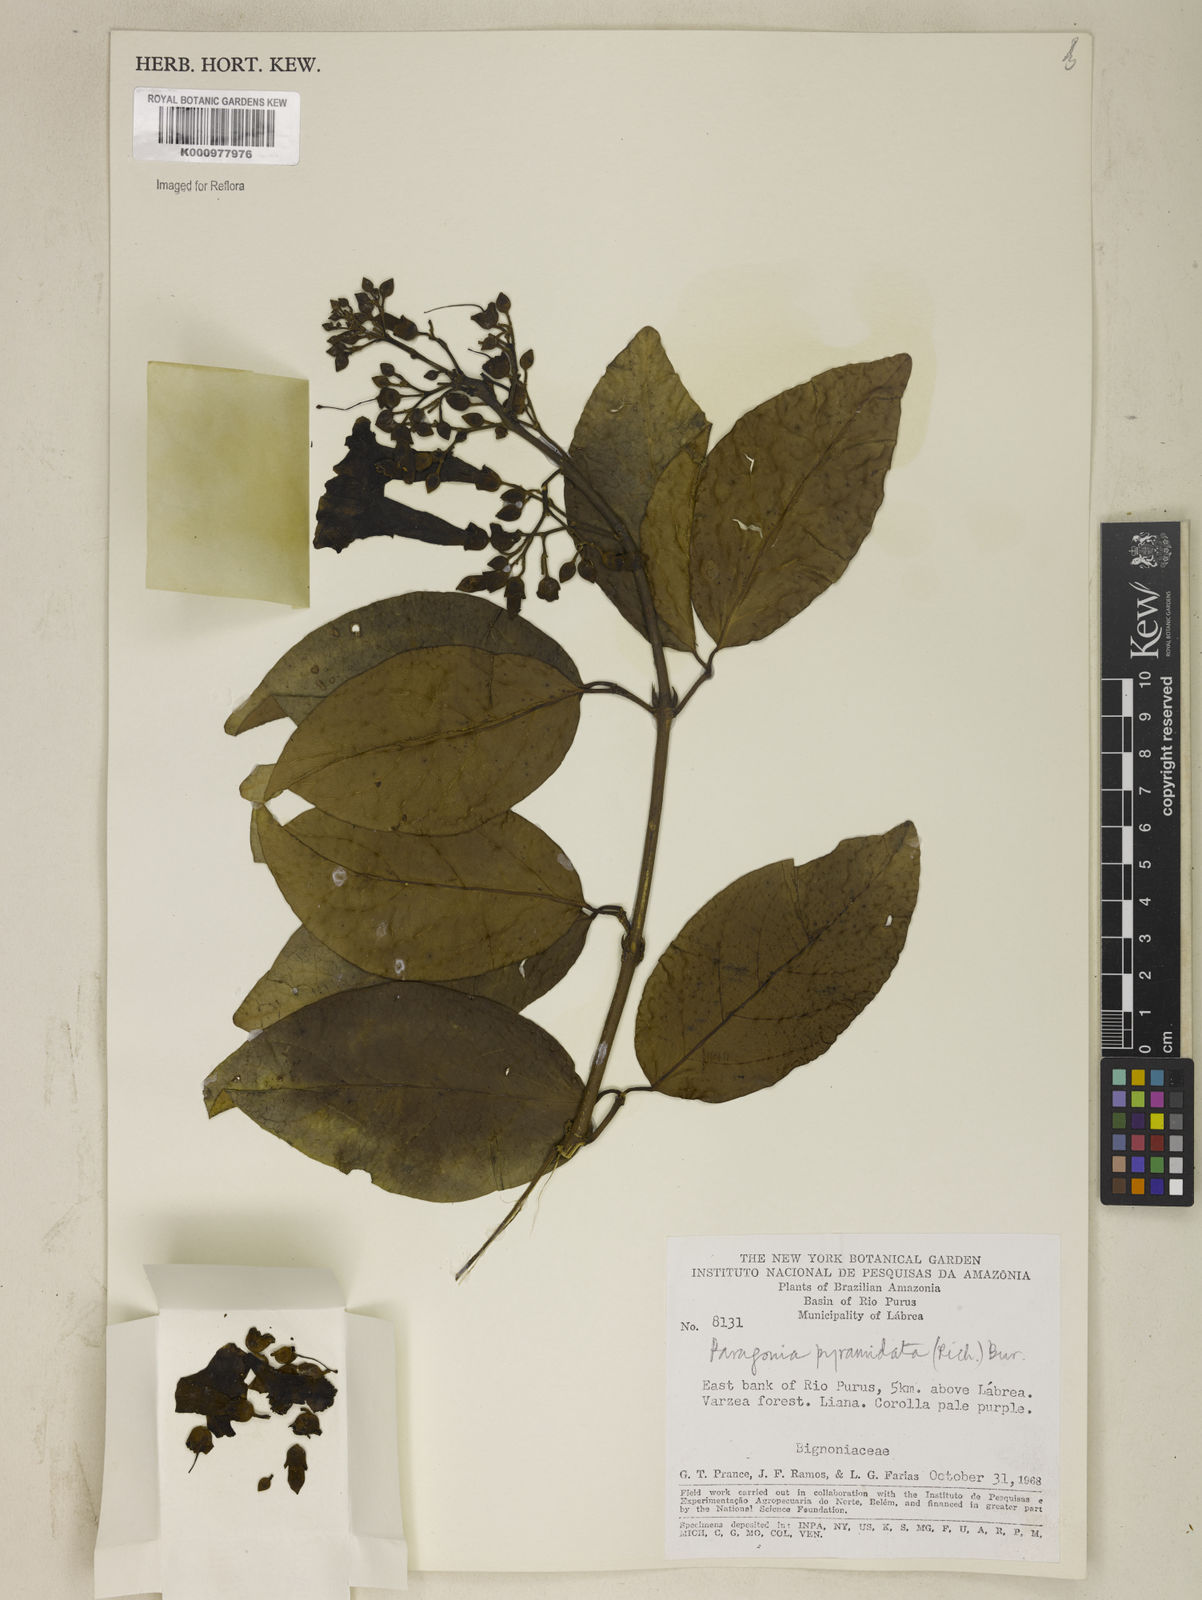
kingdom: Plantae
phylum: Tracheophyta
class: Magnoliopsida
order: Lamiales
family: Bignoniaceae
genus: Tanaecium
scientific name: Tanaecium pyramidatum
